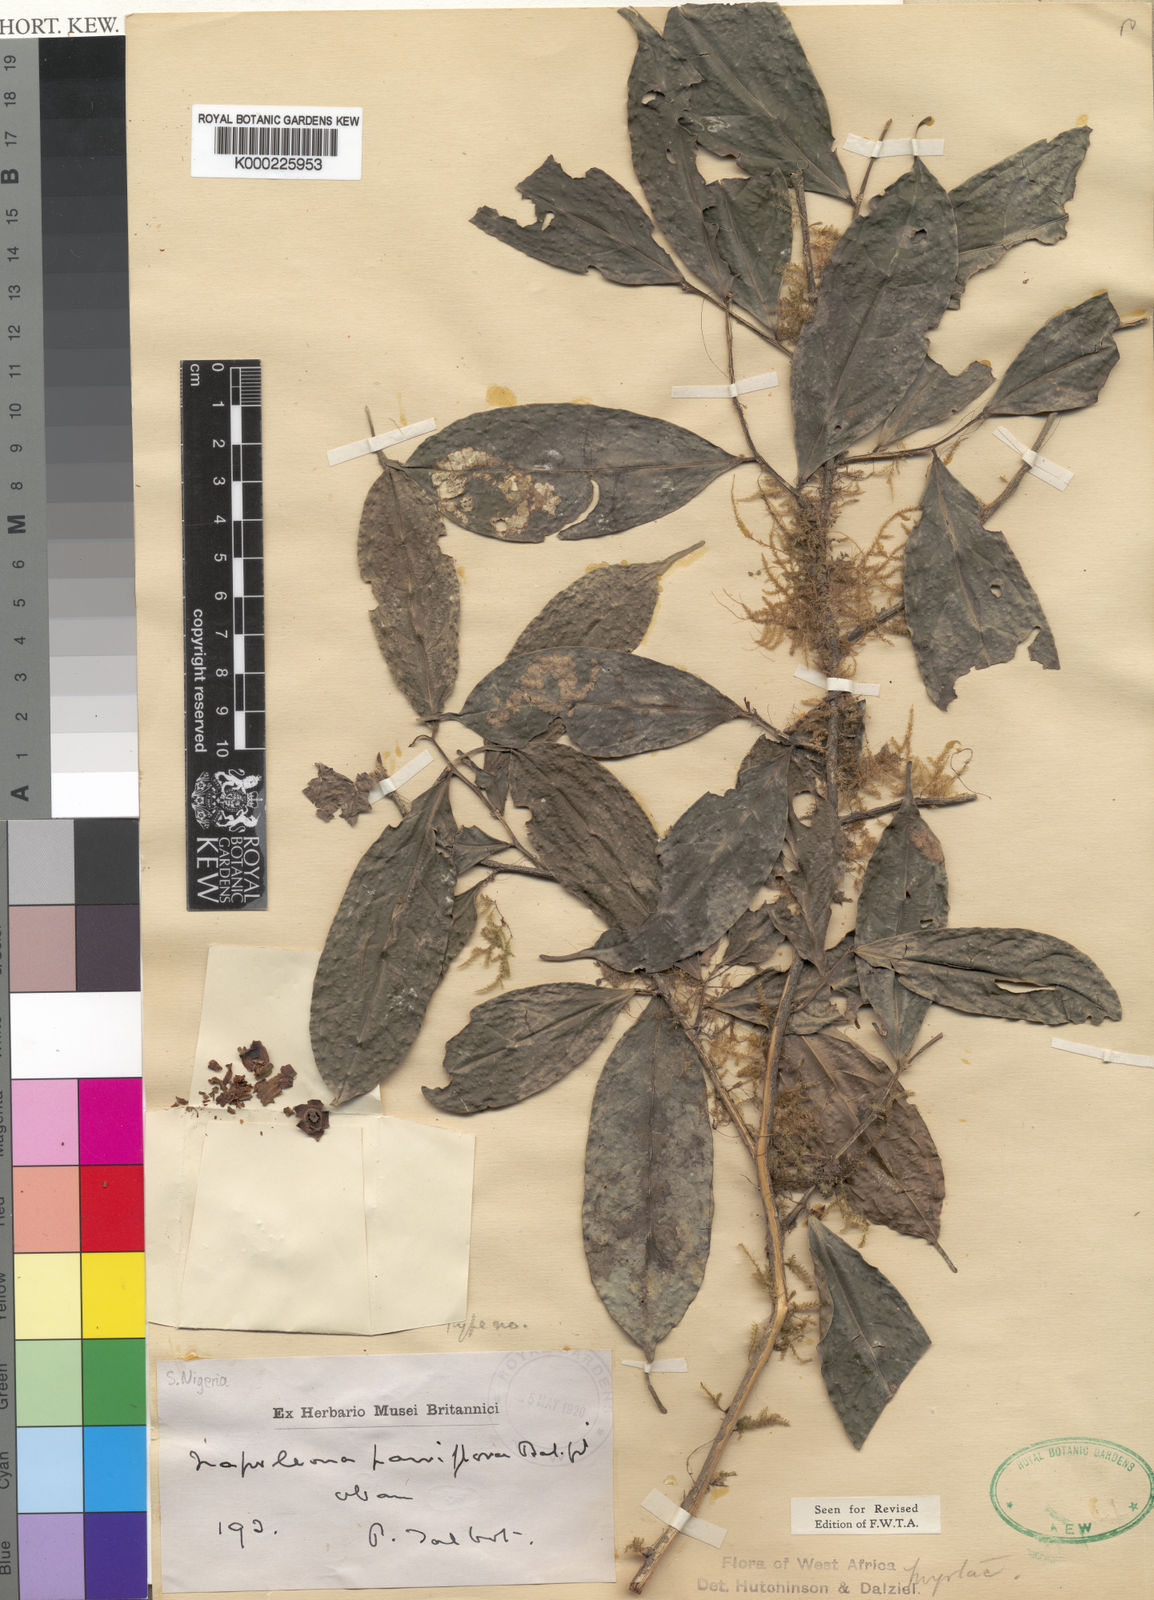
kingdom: Plantae
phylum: Tracheophyta
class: Magnoliopsida
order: Ericales
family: Lecythidaceae
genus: Napoleonaea
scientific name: Napoleonaea angolensis
